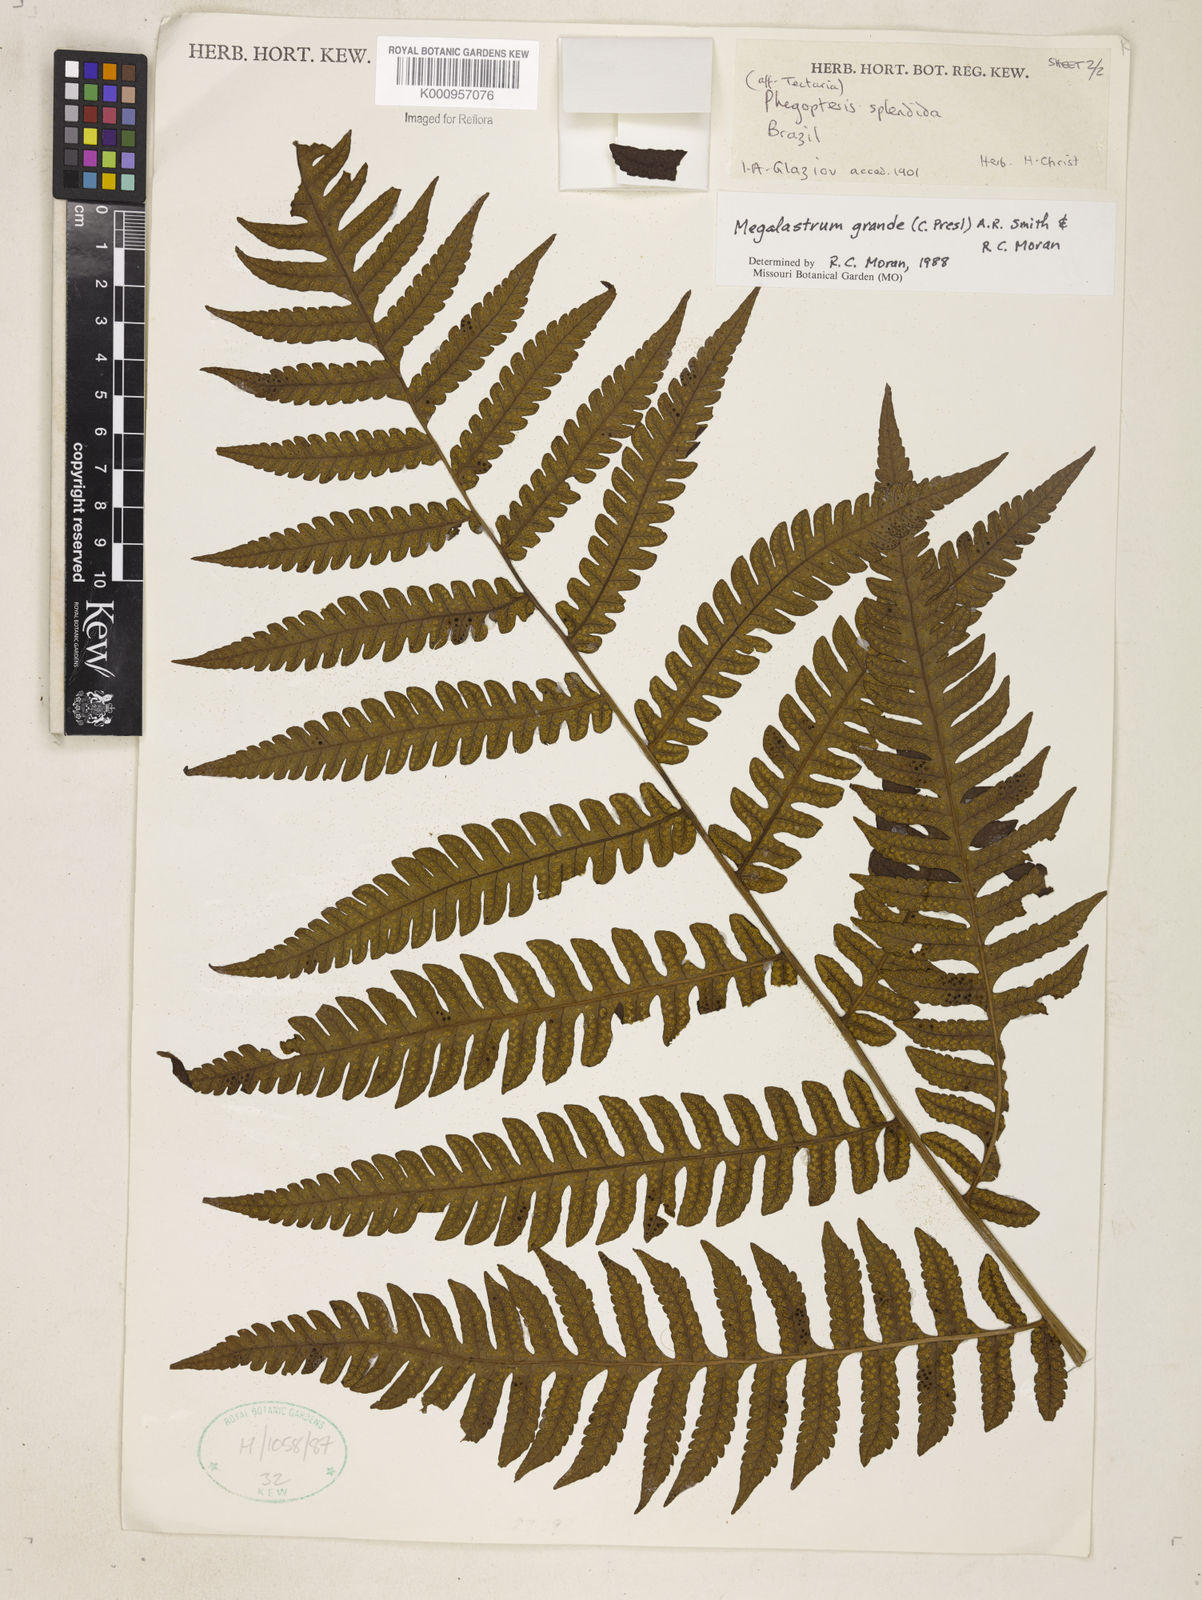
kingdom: Plantae
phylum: Tracheophyta
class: Polypodiopsida
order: Polypodiales
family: Dryopteridaceae
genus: Megalastrum
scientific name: Megalastrum grande
